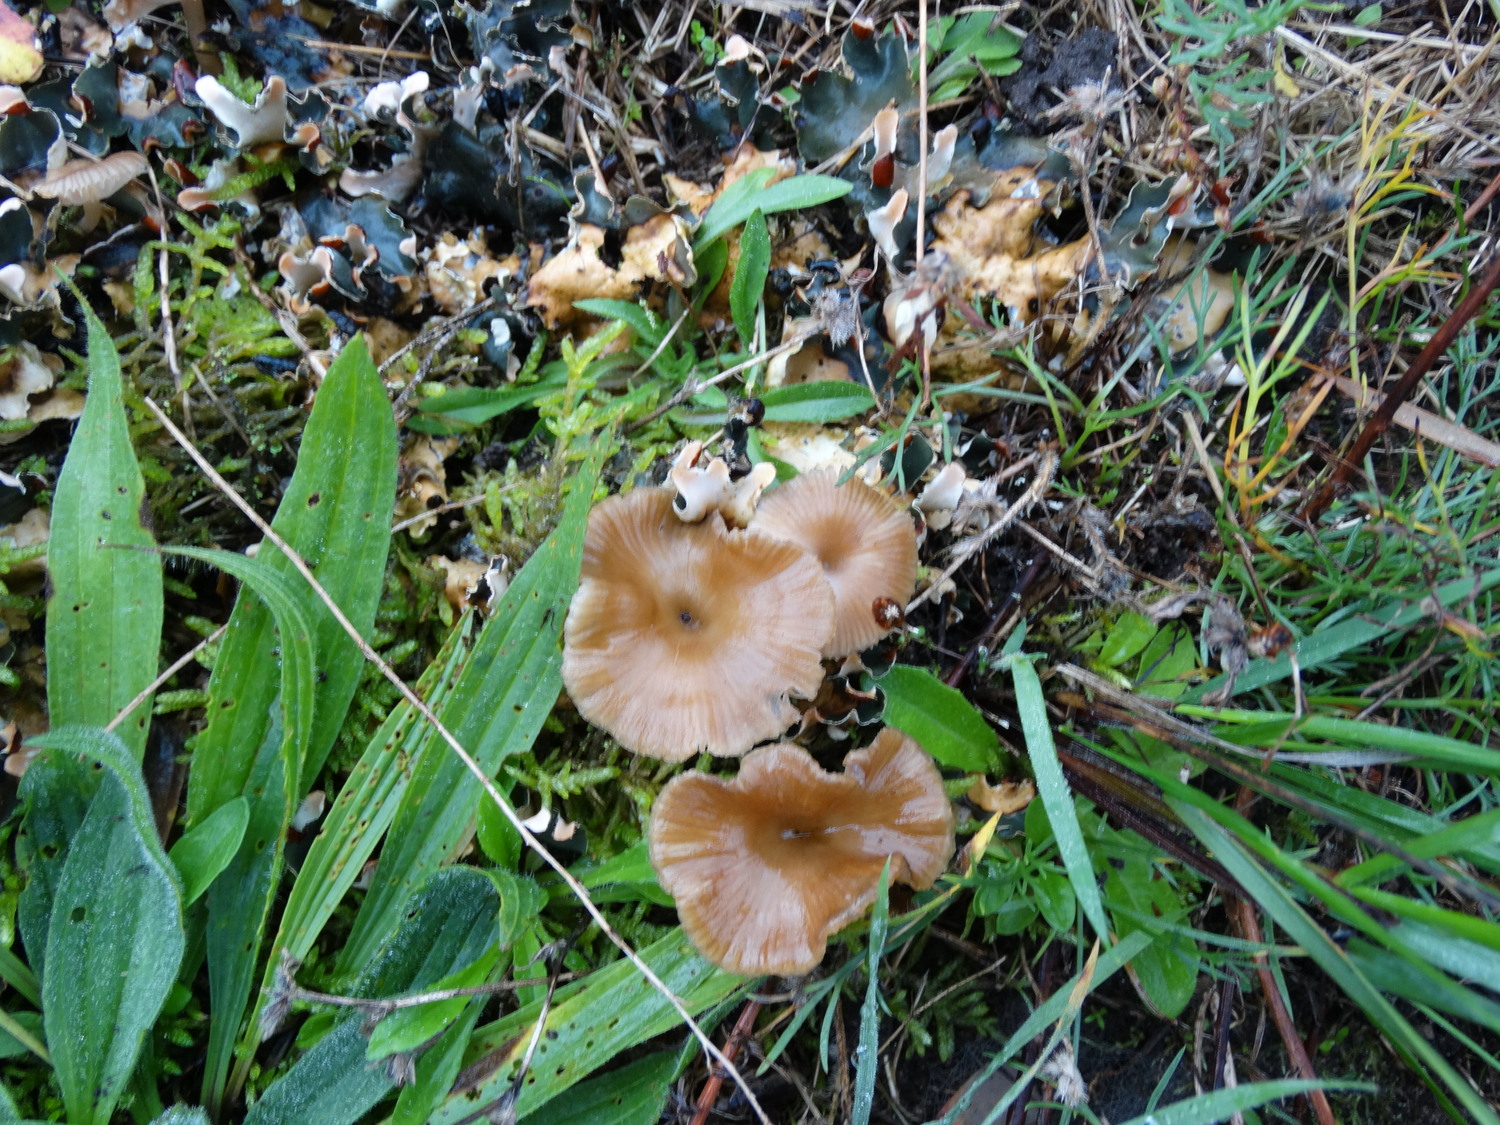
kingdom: Fungi
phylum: Basidiomycota
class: Agaricomycetes
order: Agaricales
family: Tricholomataceae
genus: Omphalina
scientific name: Omphalina pyxidata
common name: rødbrun navlehat
